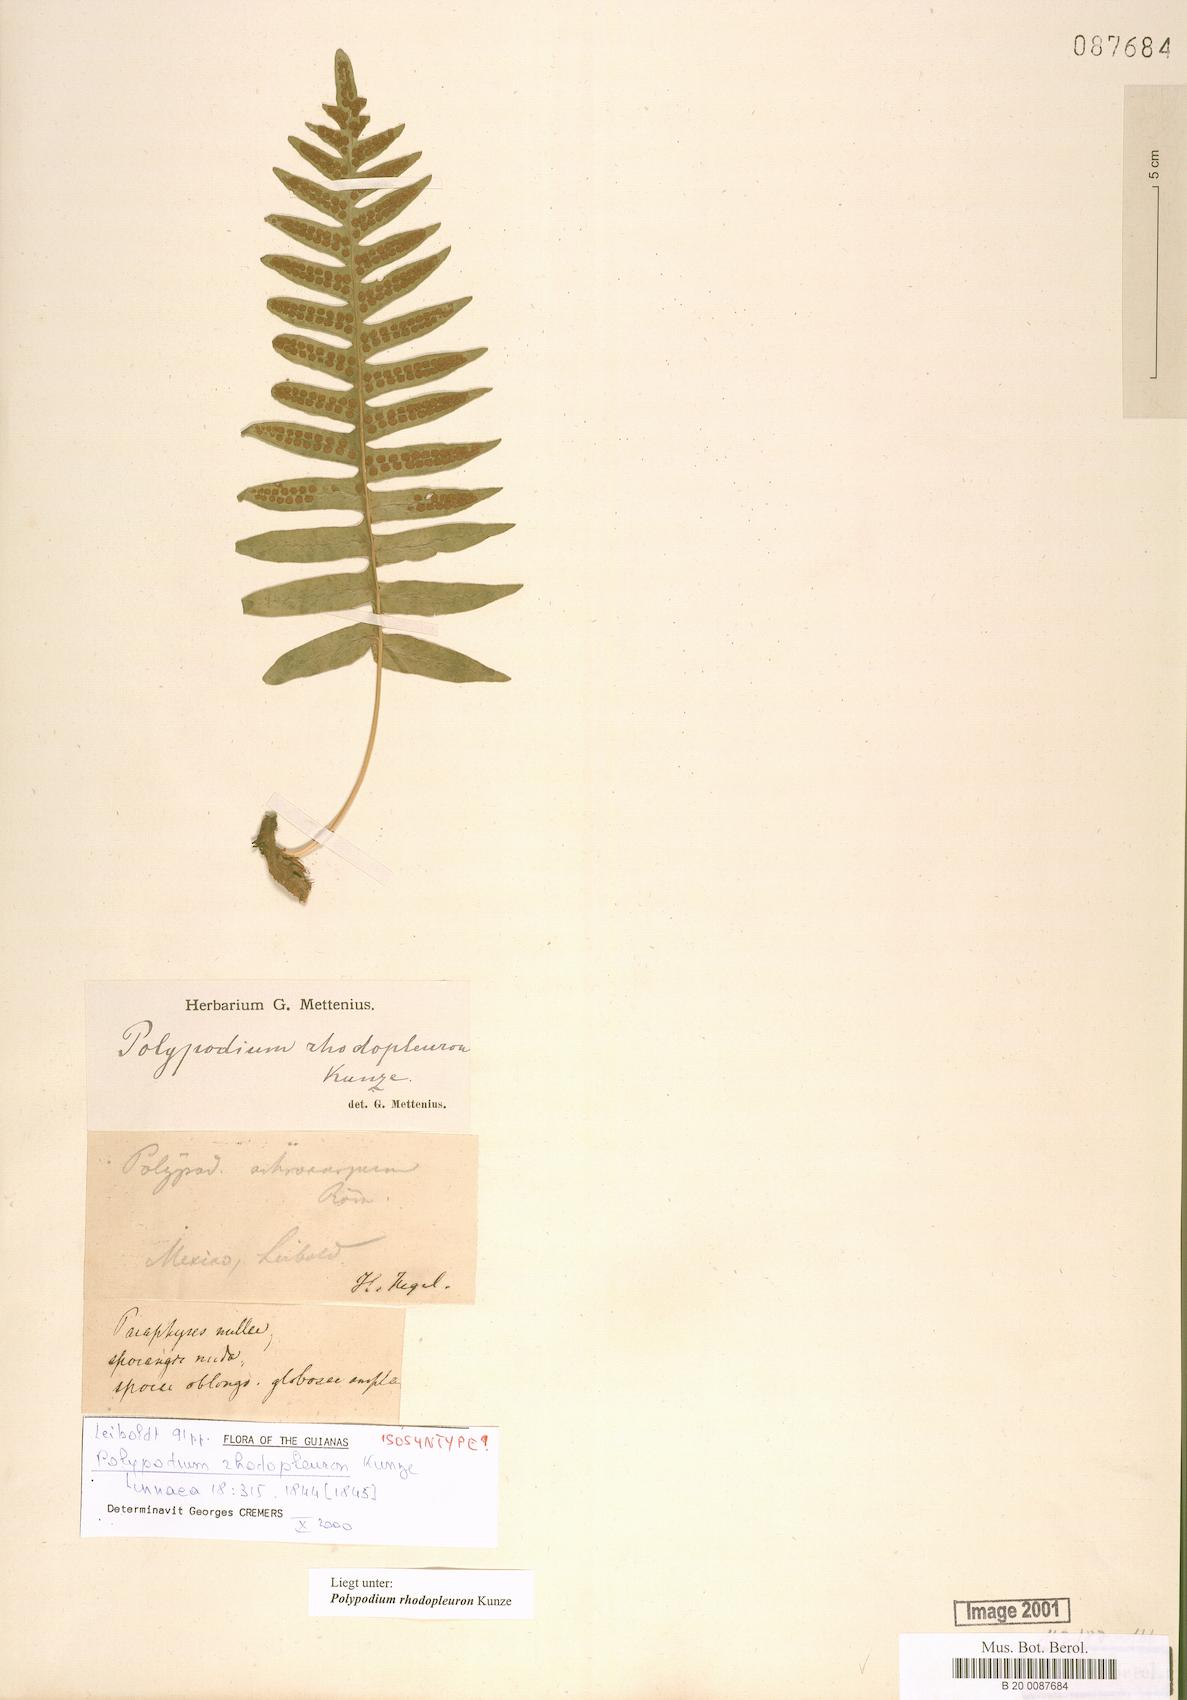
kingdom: Plantae
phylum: Tracheophyta
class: Polypodiopsida
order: Polypodiales
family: Polypodiaceae
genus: Polypodium
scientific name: Polypodium rhodopleuron
